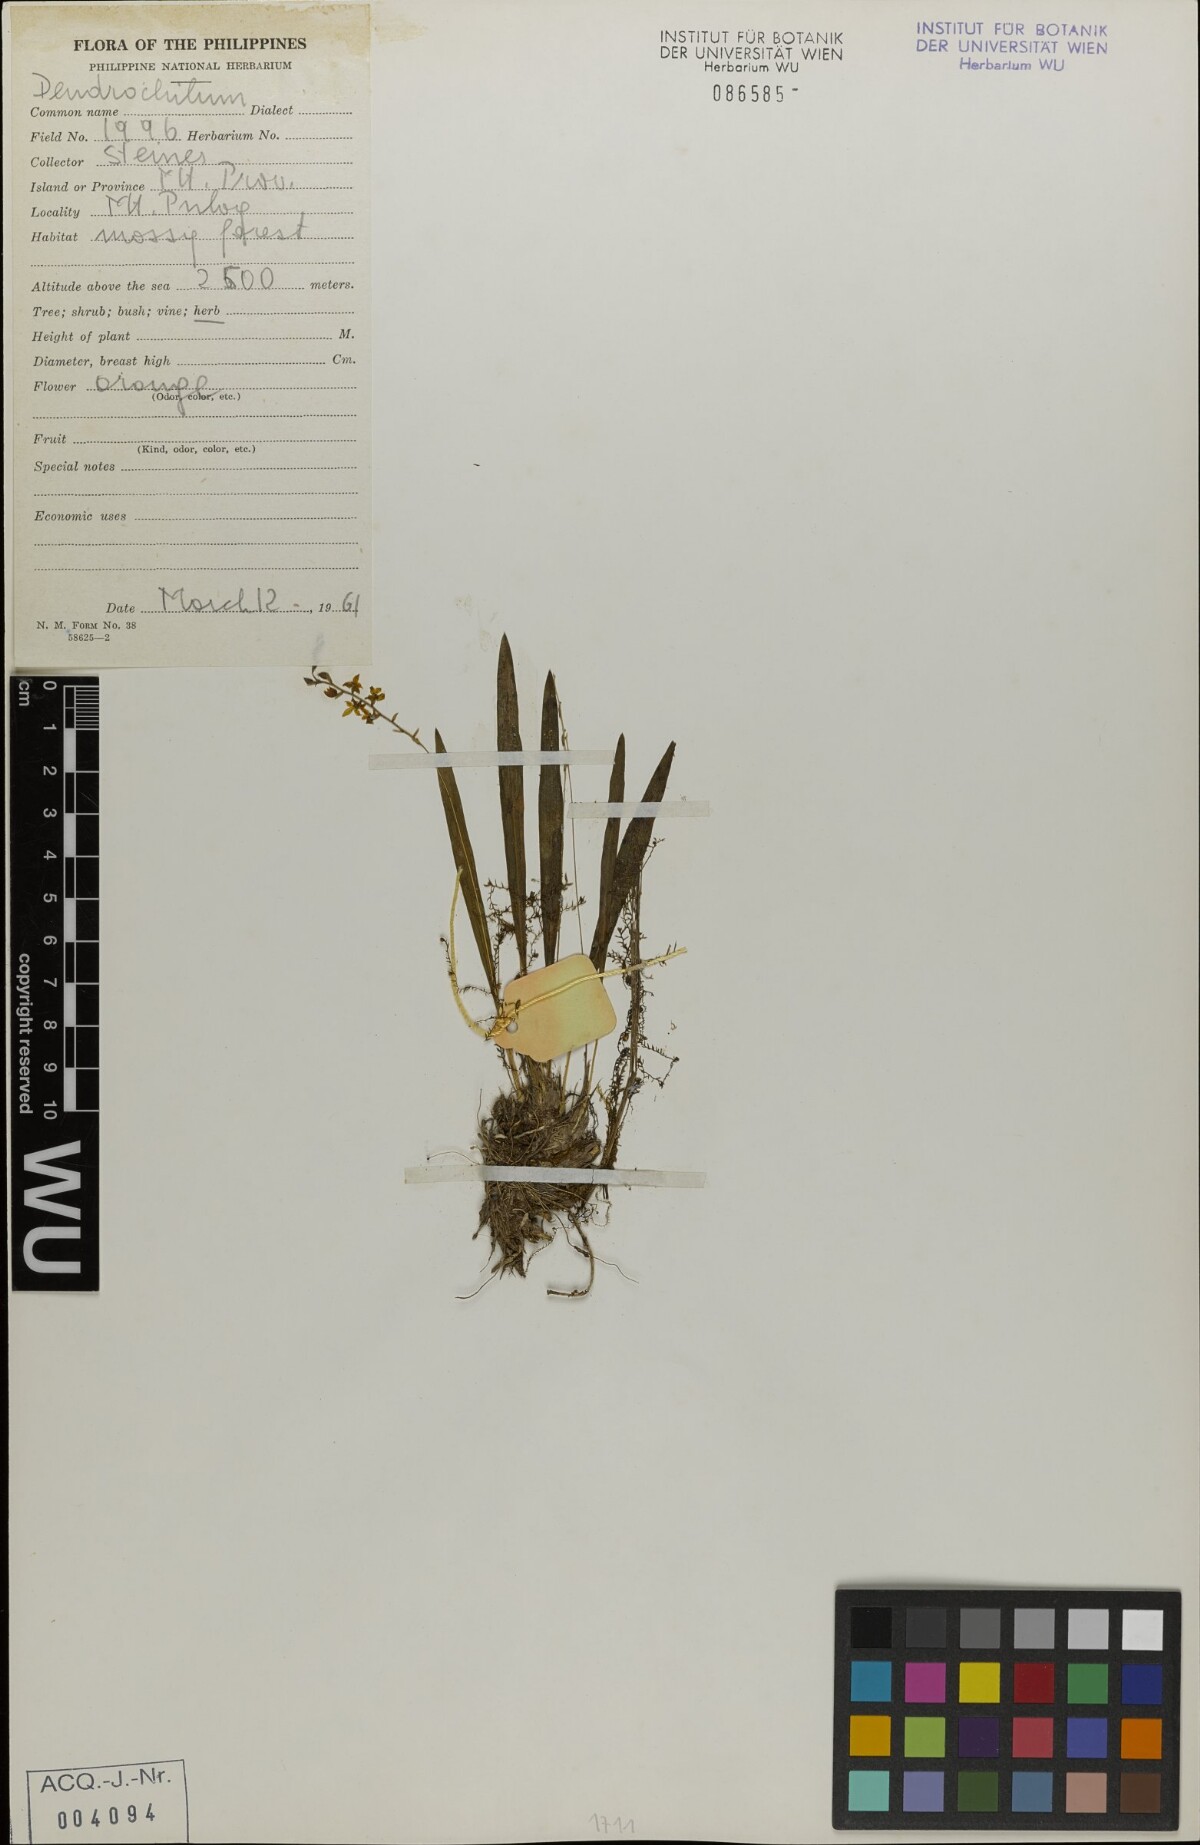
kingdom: Plantae
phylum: Tracheophyta
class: Liliopsida
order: Asparagales
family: Orchidaceae
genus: Coelogyne
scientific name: Coelogyne
